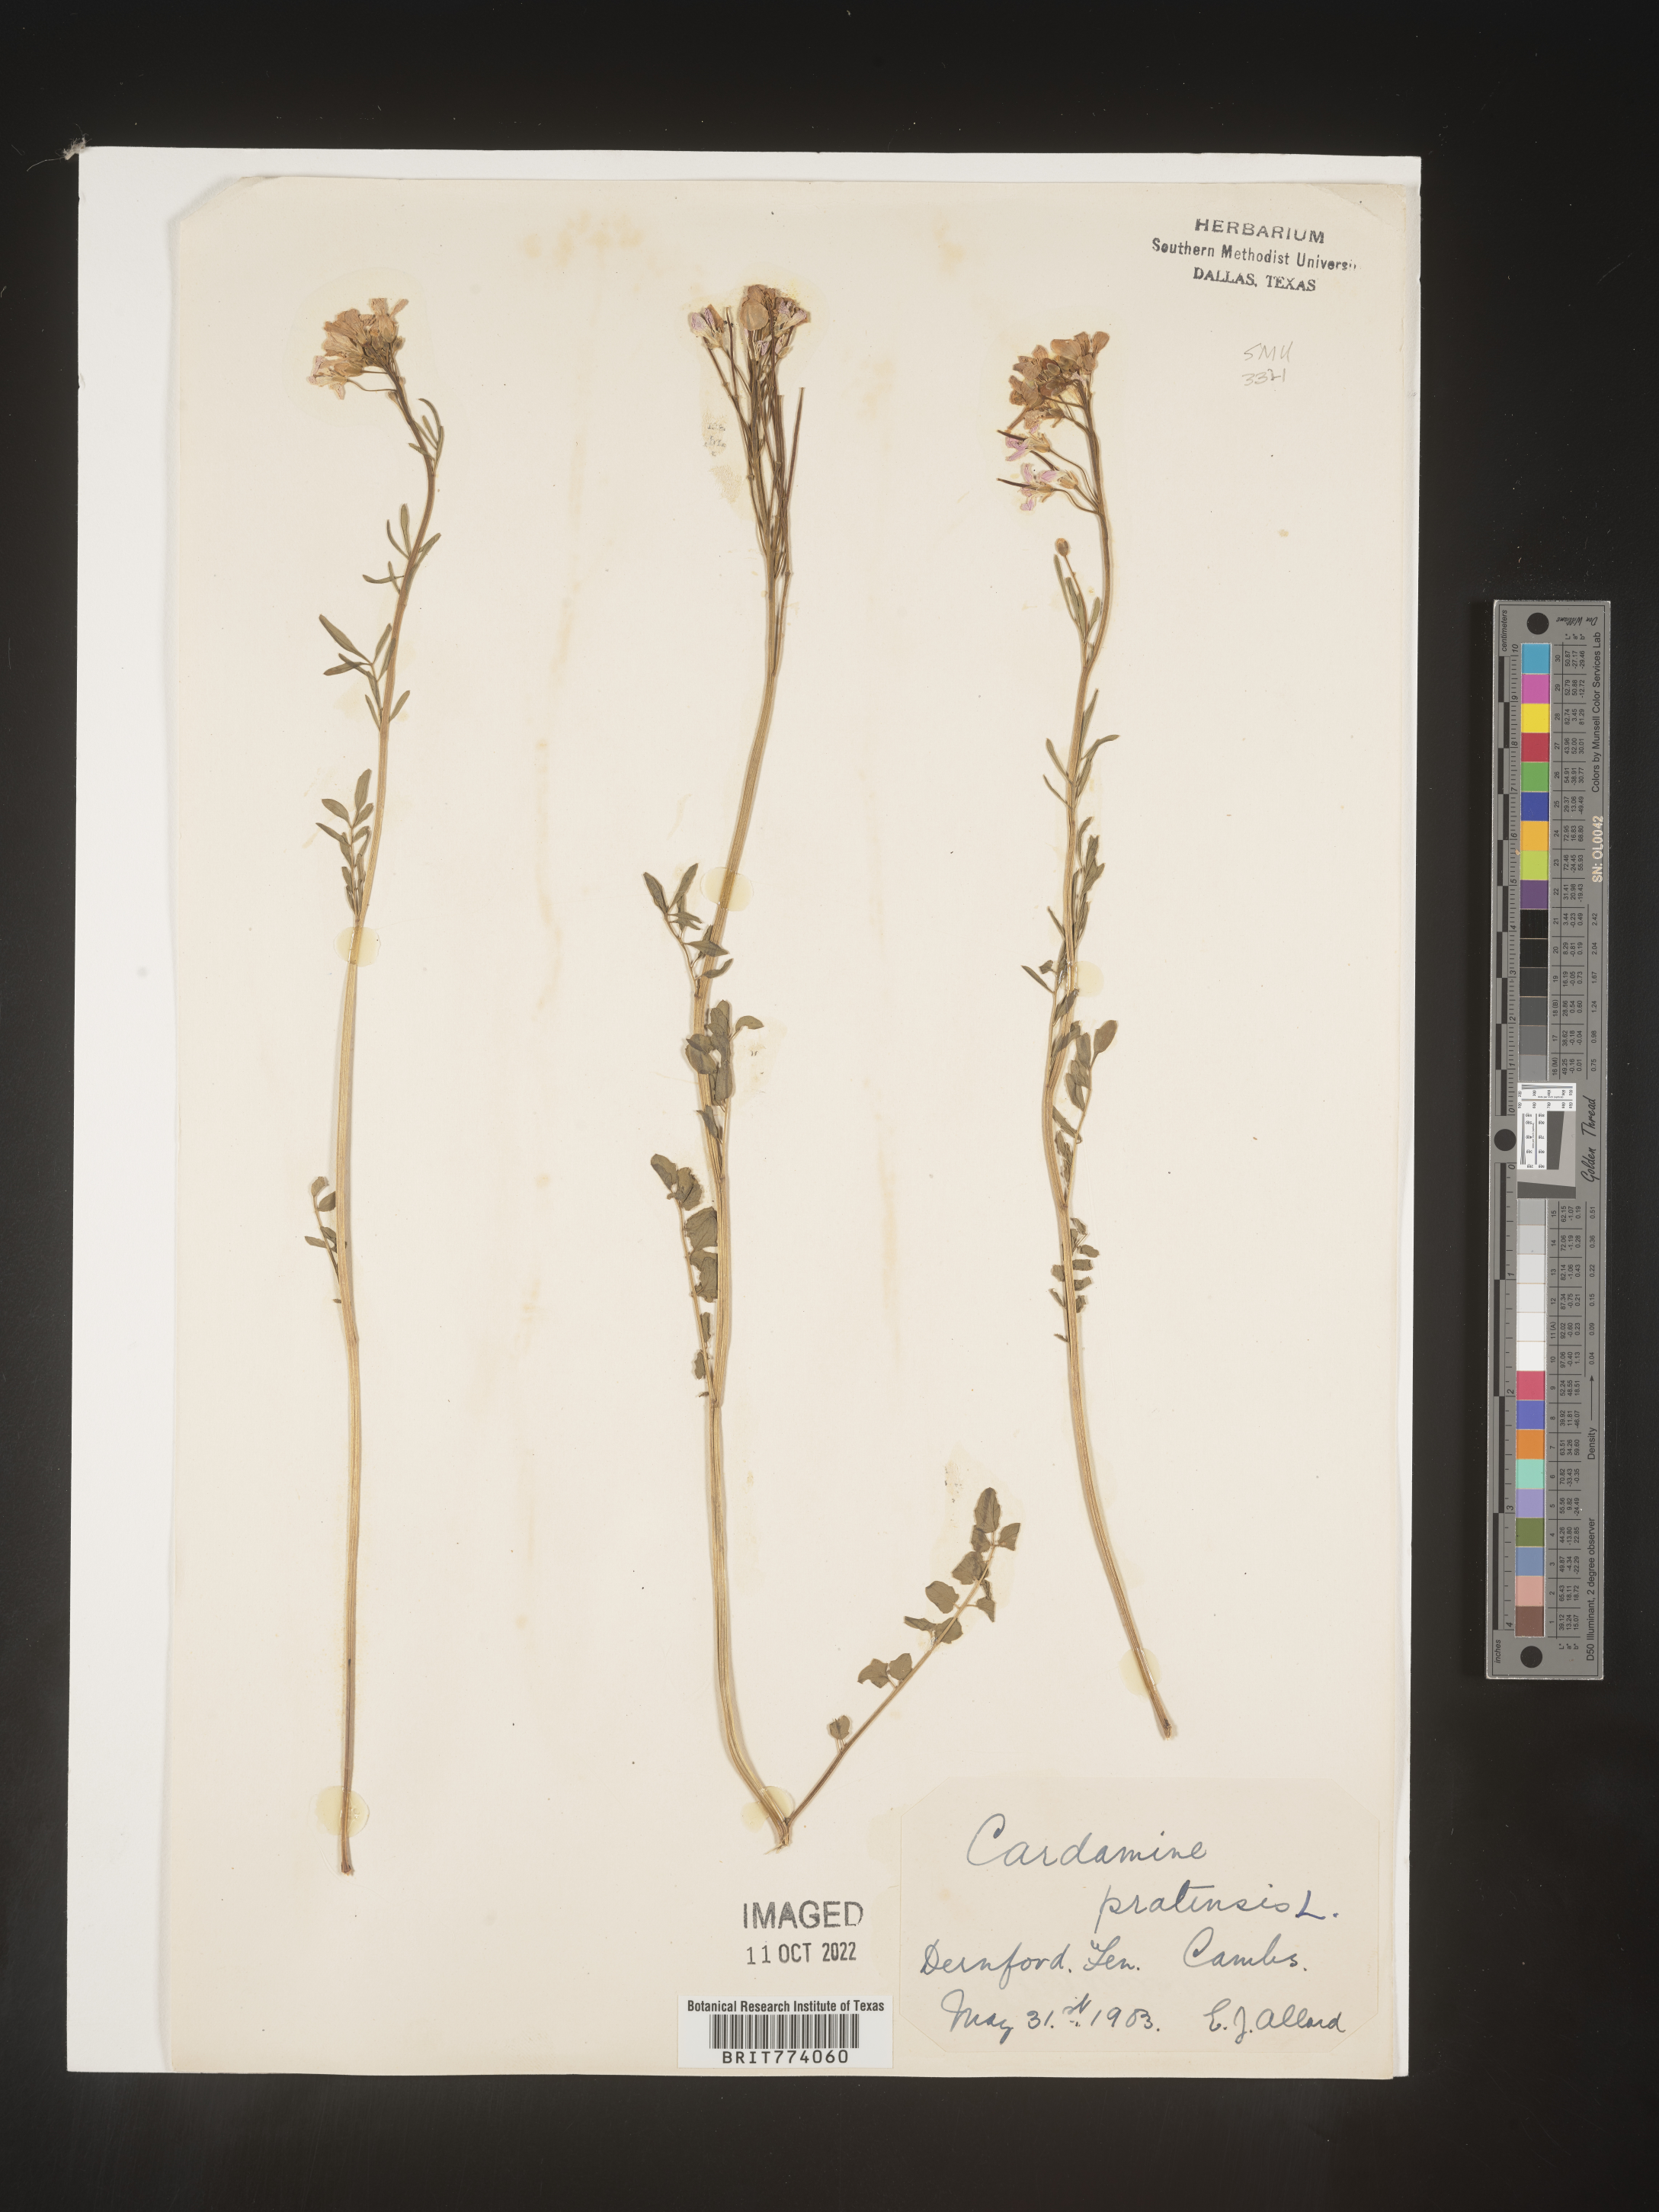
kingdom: Plantae
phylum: Tracheophyta
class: Magnoliopsida
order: Brassicales
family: Brassicaceae
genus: Cardamine
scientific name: Cardamine pratensis
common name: Cuckoo flower
